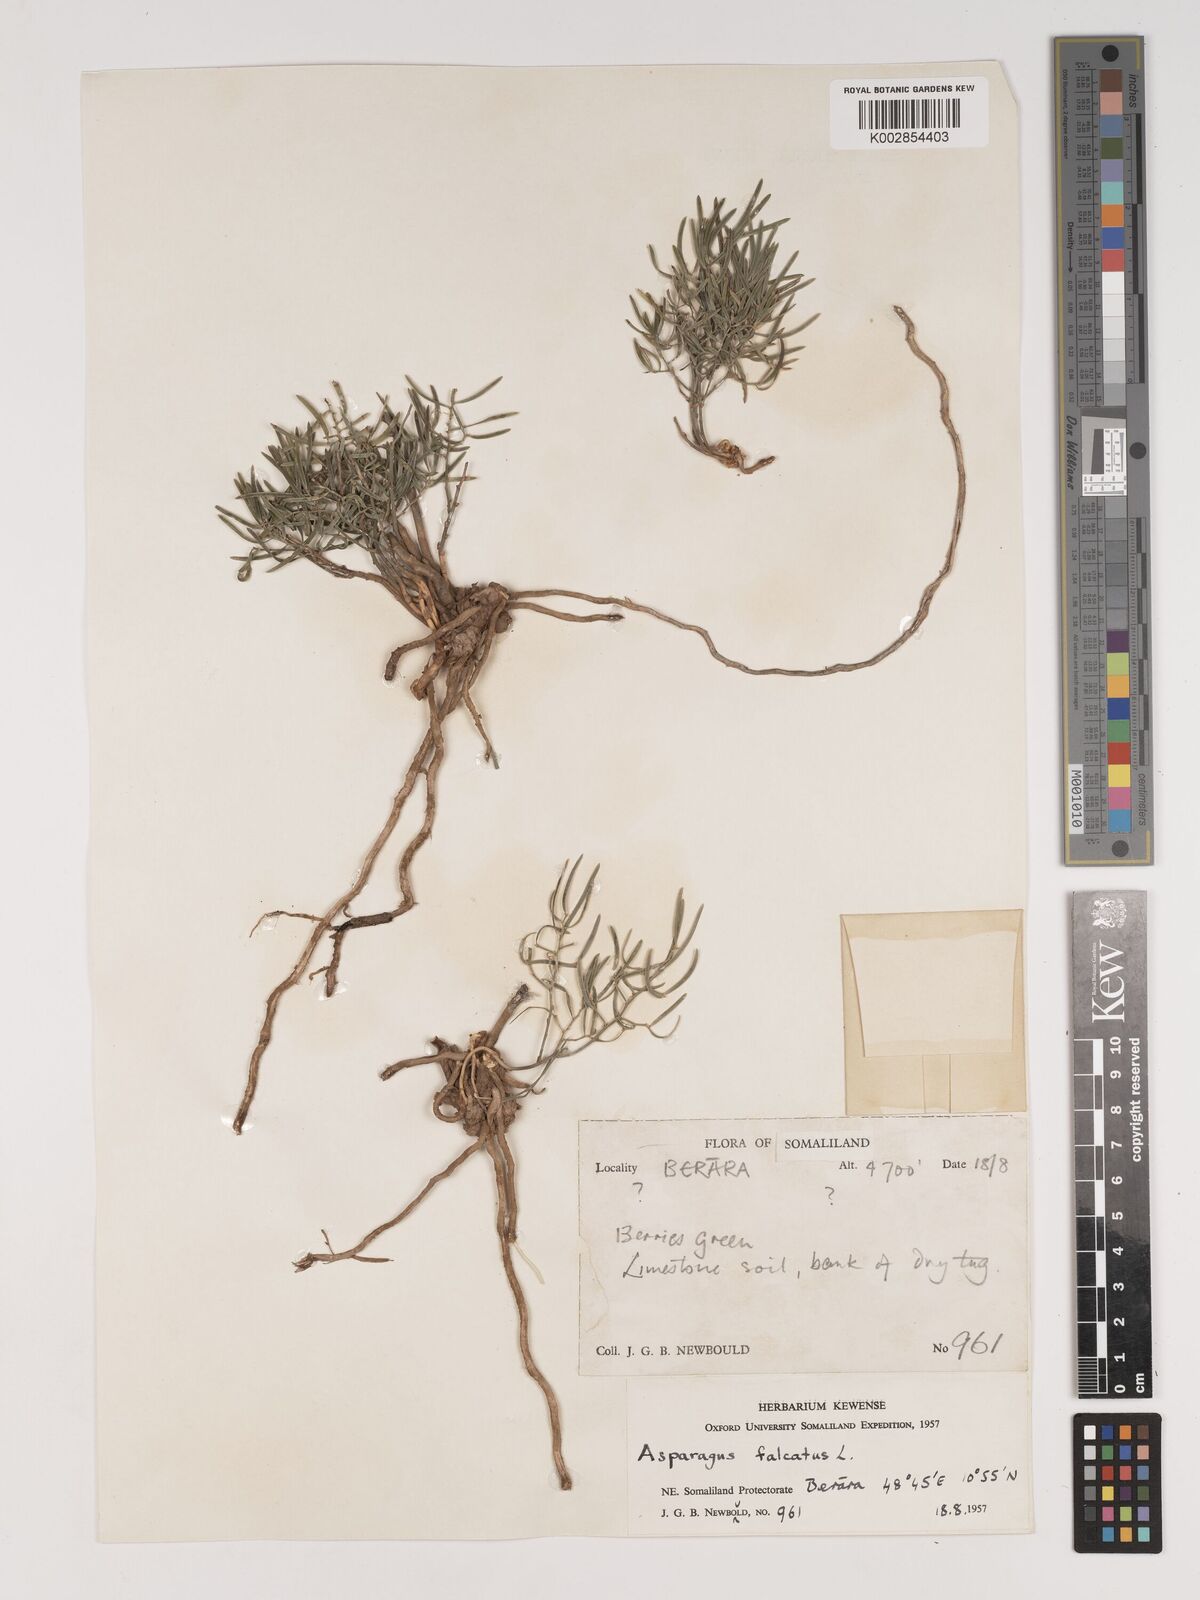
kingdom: Plantae
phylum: Tracheophyta
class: Liliopsida
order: Asparagales
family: Asparagaceae
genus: Asparagus
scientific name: Asparagus falcatus
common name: Asparagus
